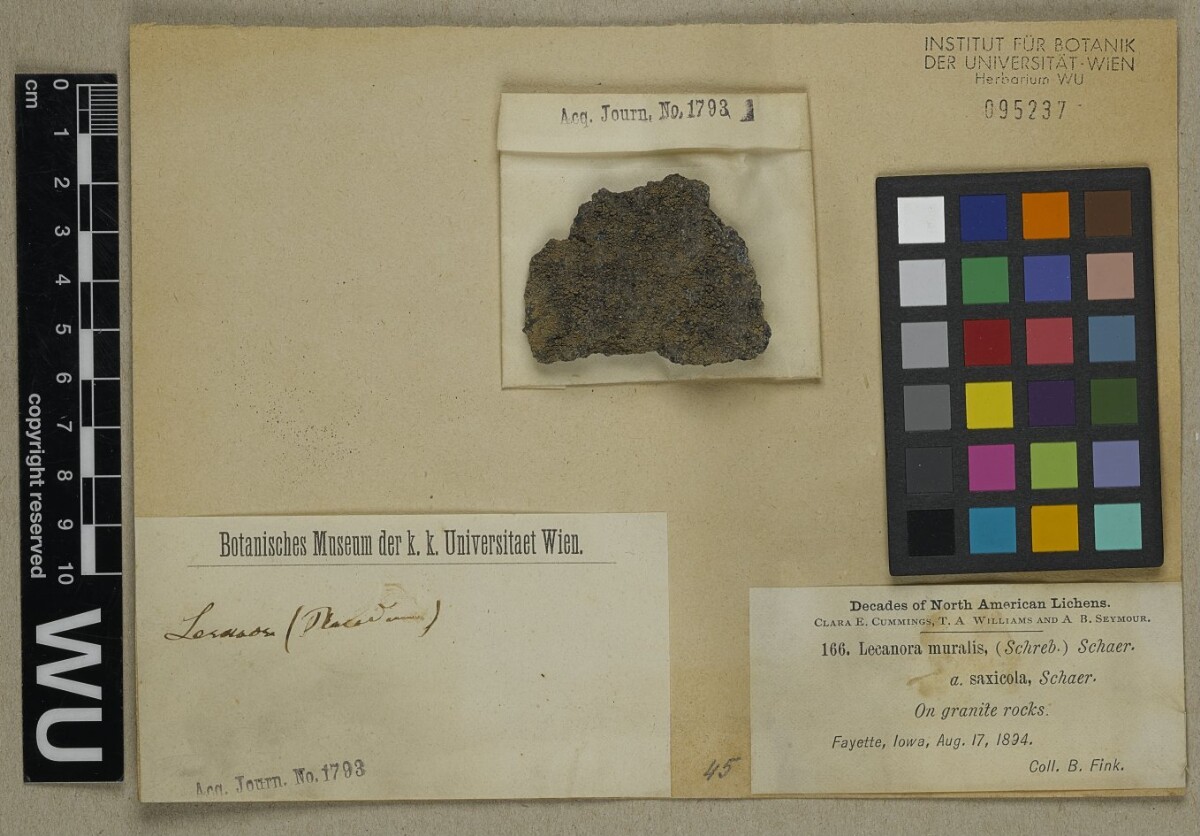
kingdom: Fungi
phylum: Ascomycota
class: Lecanoromycetes
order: Lecanorales
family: Lecanoraceae
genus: Protoparmeliopsis
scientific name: Protoparmeliopsis muralis
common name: Stonewall rim lichen
